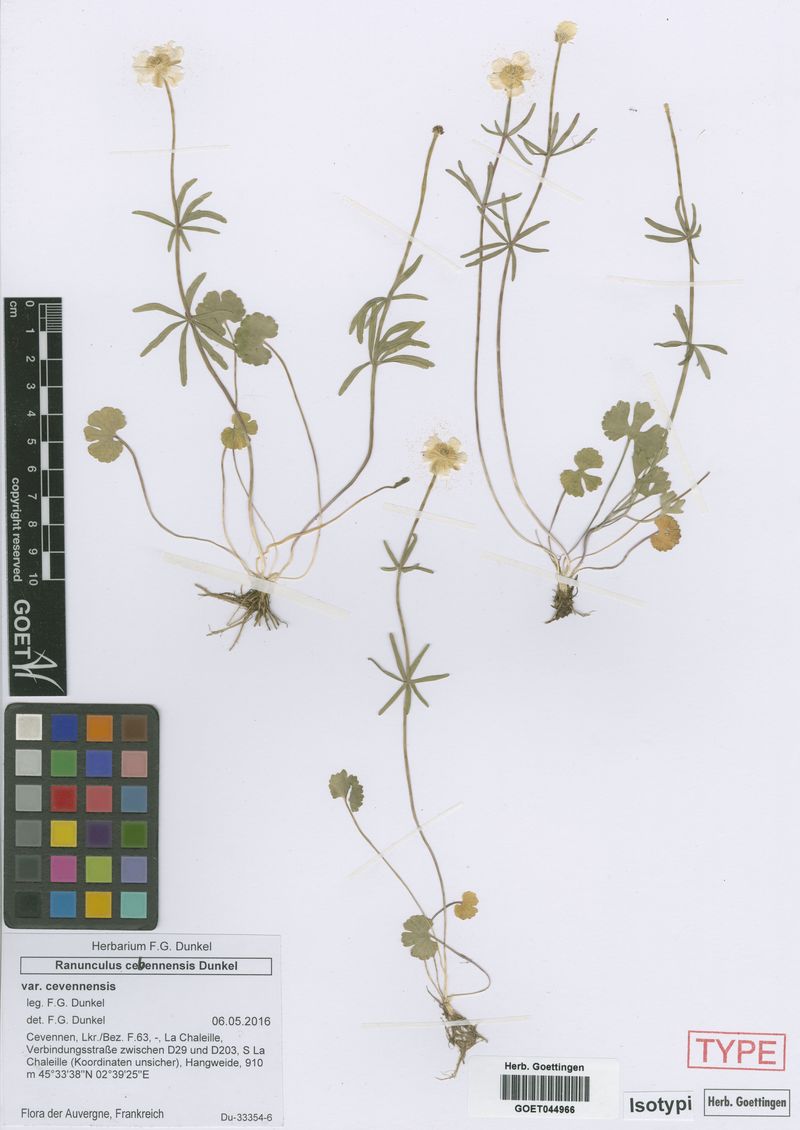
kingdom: Plantae
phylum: Tracheophyta
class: Magnoliopsida
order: Ranunculales
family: Ranunculaceae
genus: Ranunculus
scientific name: Ranunculus envalirensis
